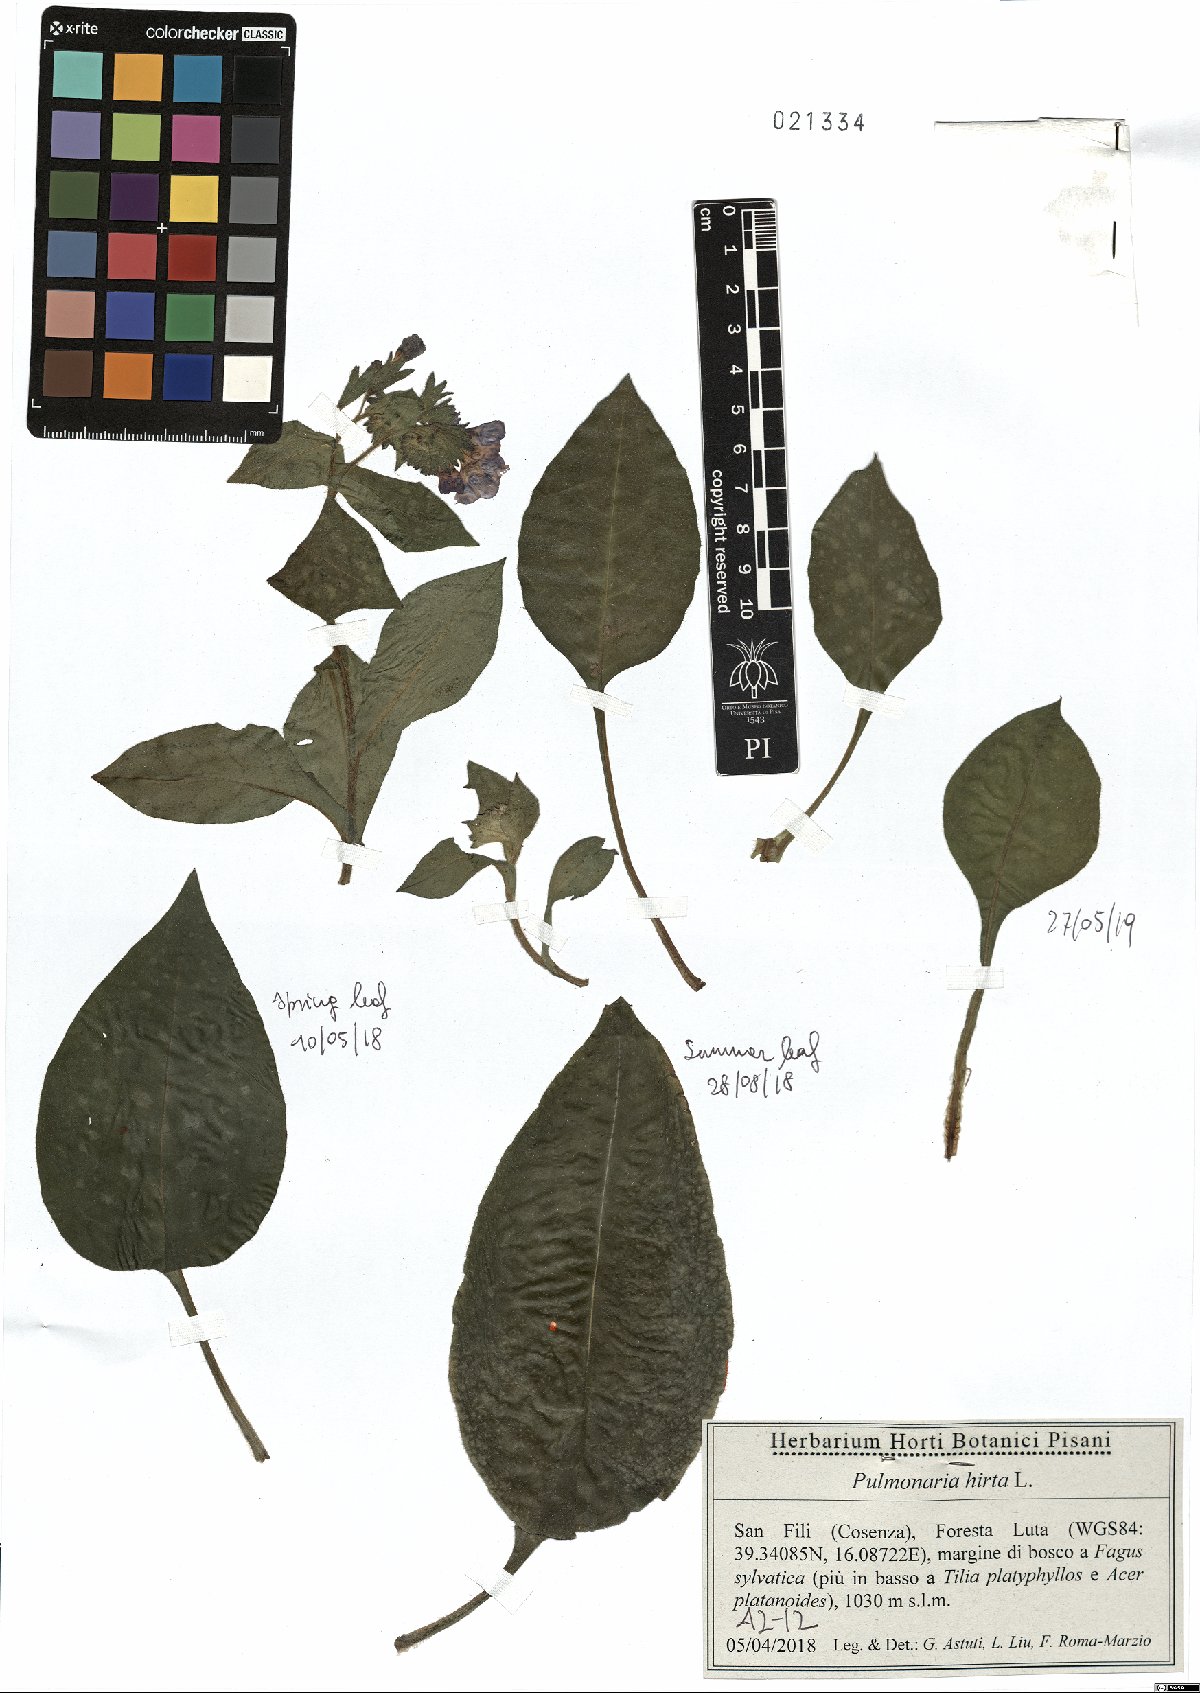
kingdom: Plantae
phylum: Tracheophyta
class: Magnoliopsida
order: Boraginales
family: Boraginaceae
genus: Pulmonaria
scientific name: Pulmonaria hirta
